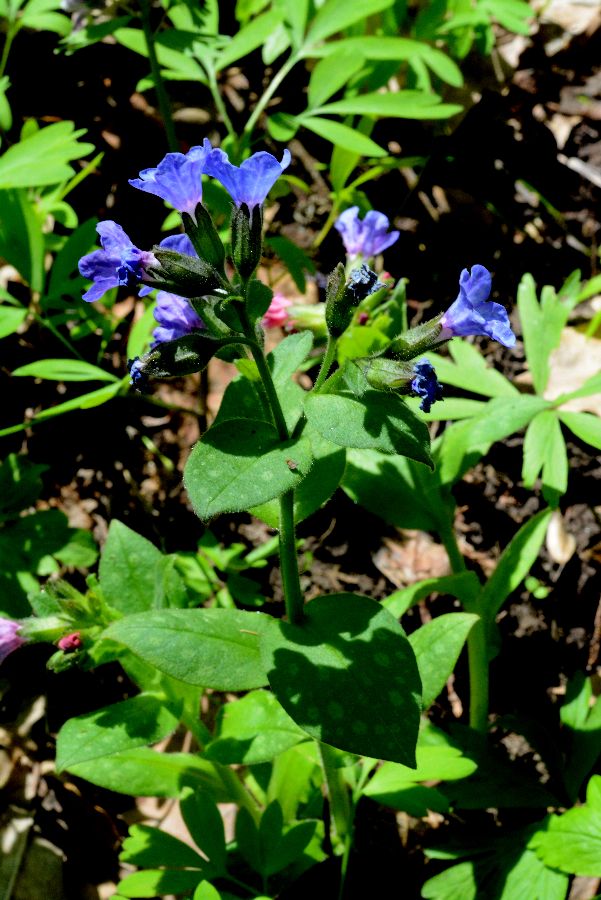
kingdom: Plantae
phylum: Tracheophyta
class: Magnoliopsida
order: Boraginales
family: Boraginaceae
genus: Pulmonaria
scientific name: Pulmonaria
